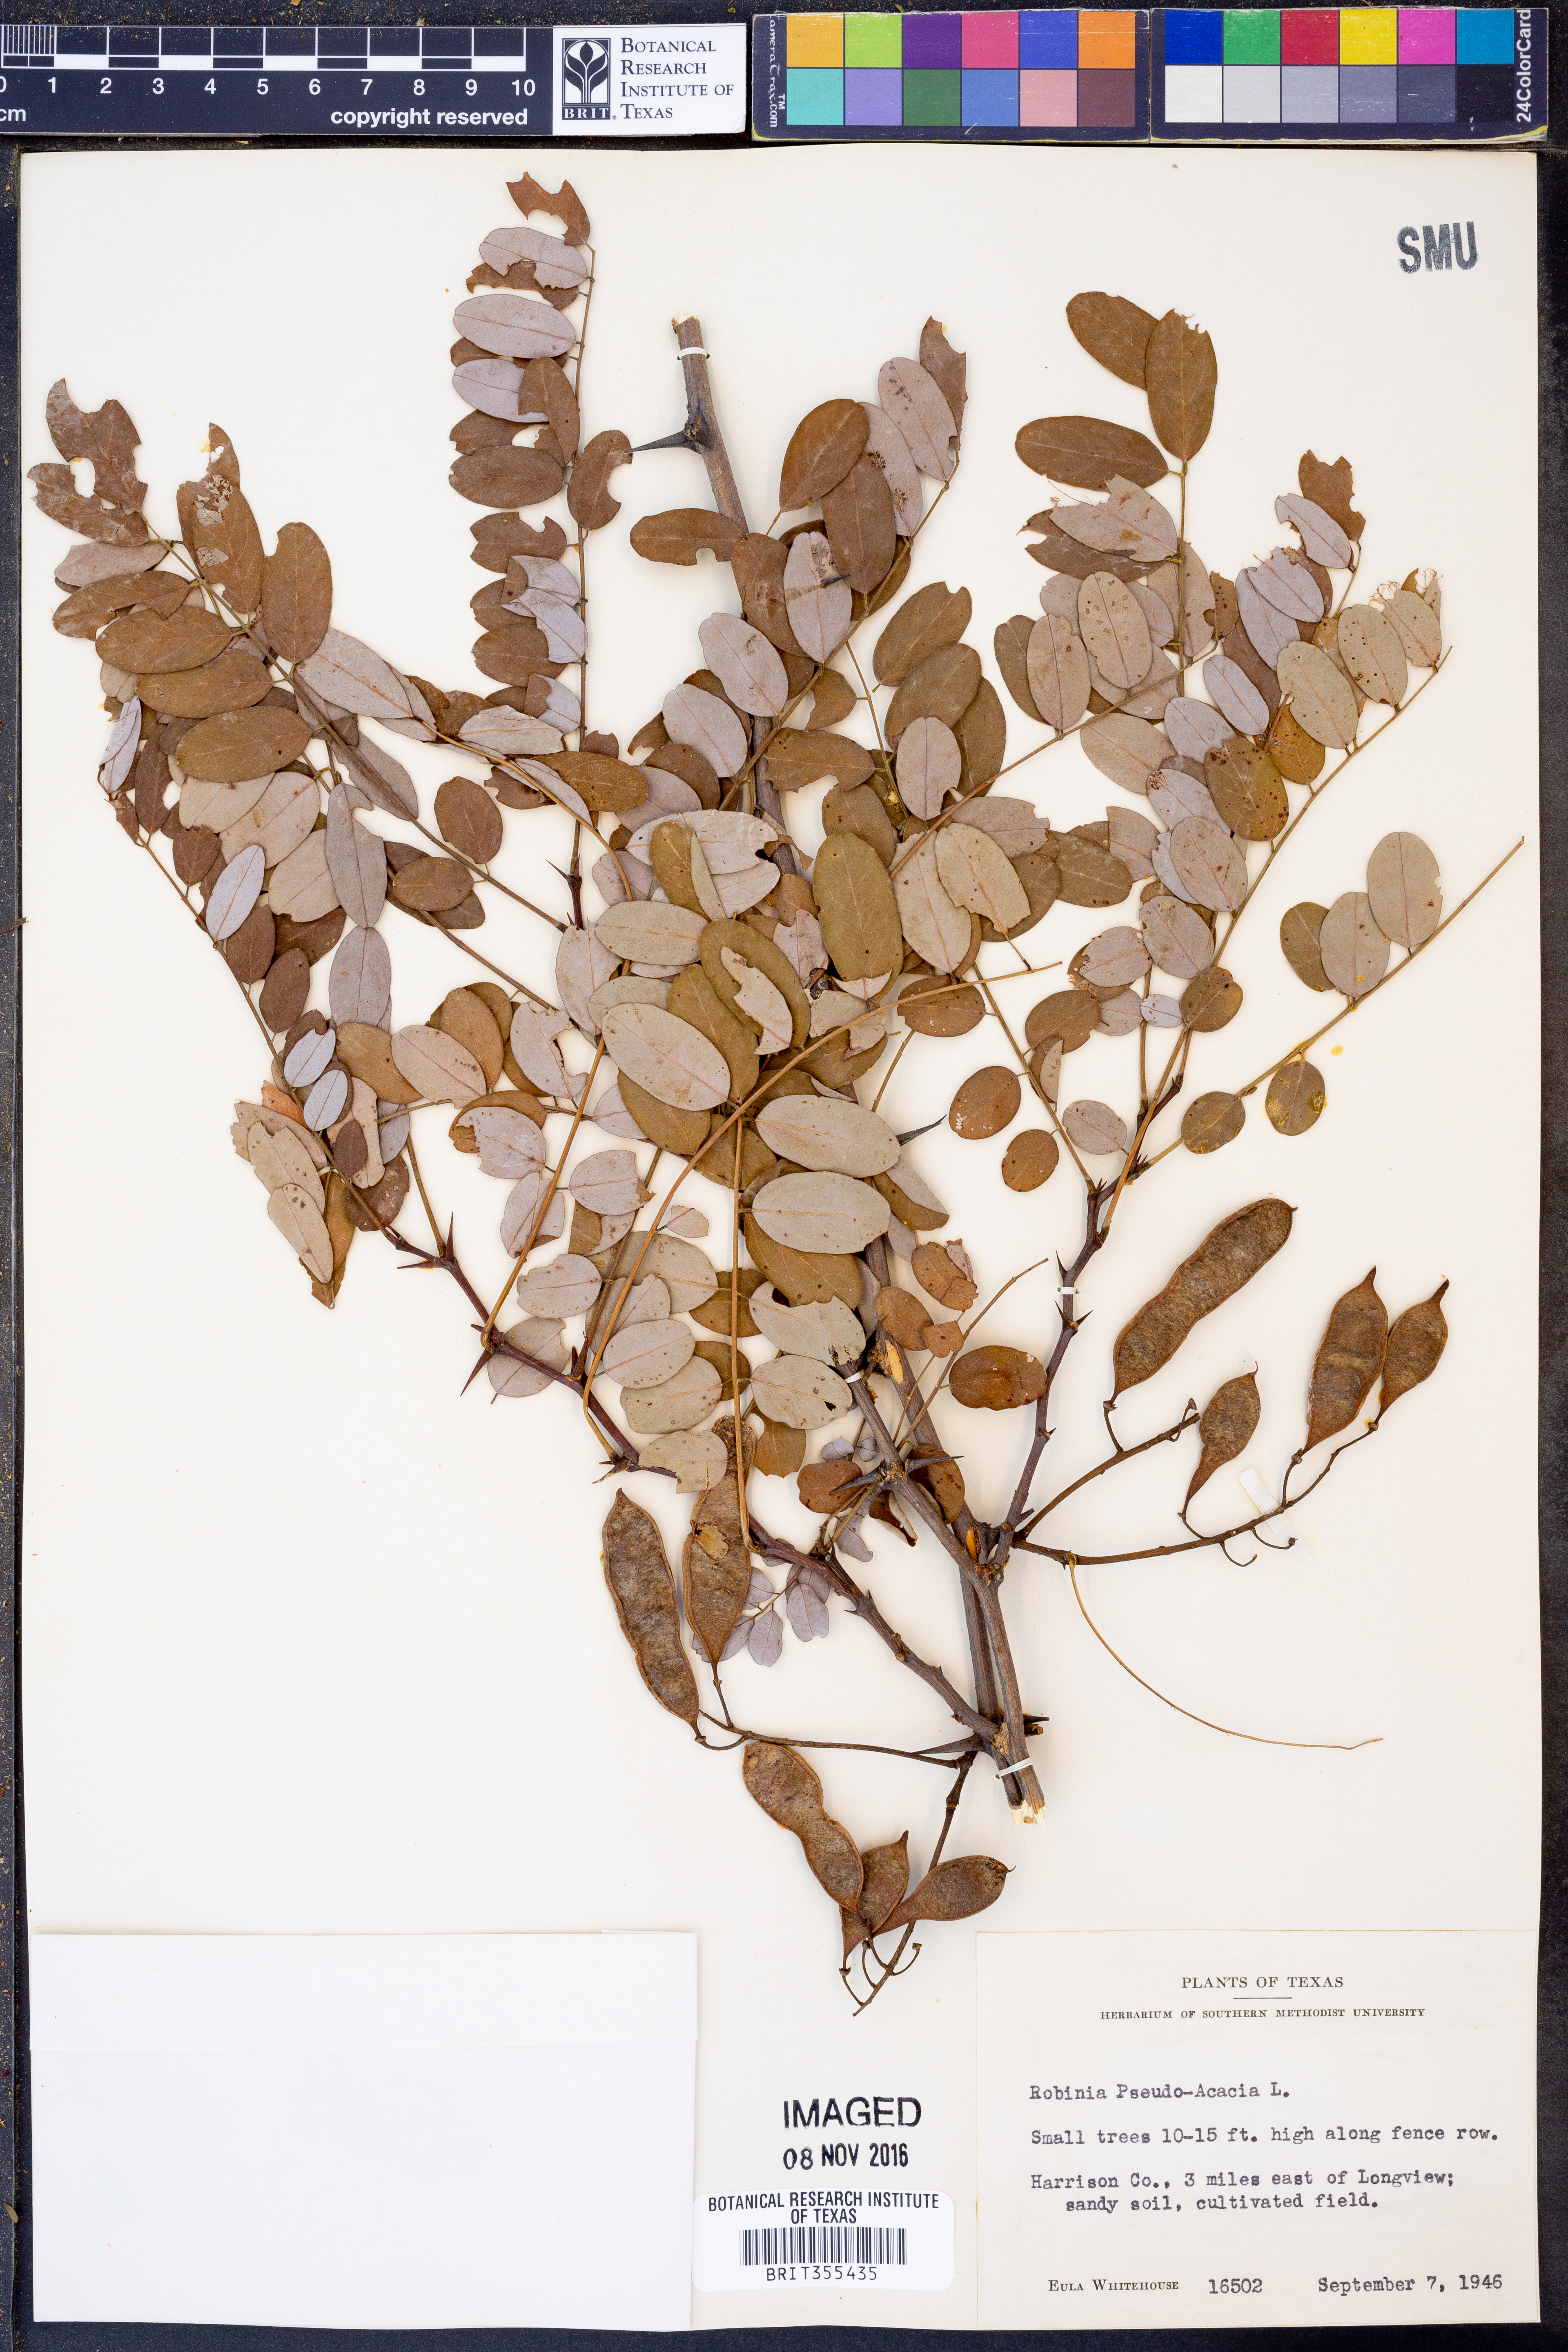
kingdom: Plantae
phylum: Tracheophyta
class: Magnoliopsida
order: Fabales
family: Fabaceae
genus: Robinia
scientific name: Robinia pseudoacacia
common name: Black locust
